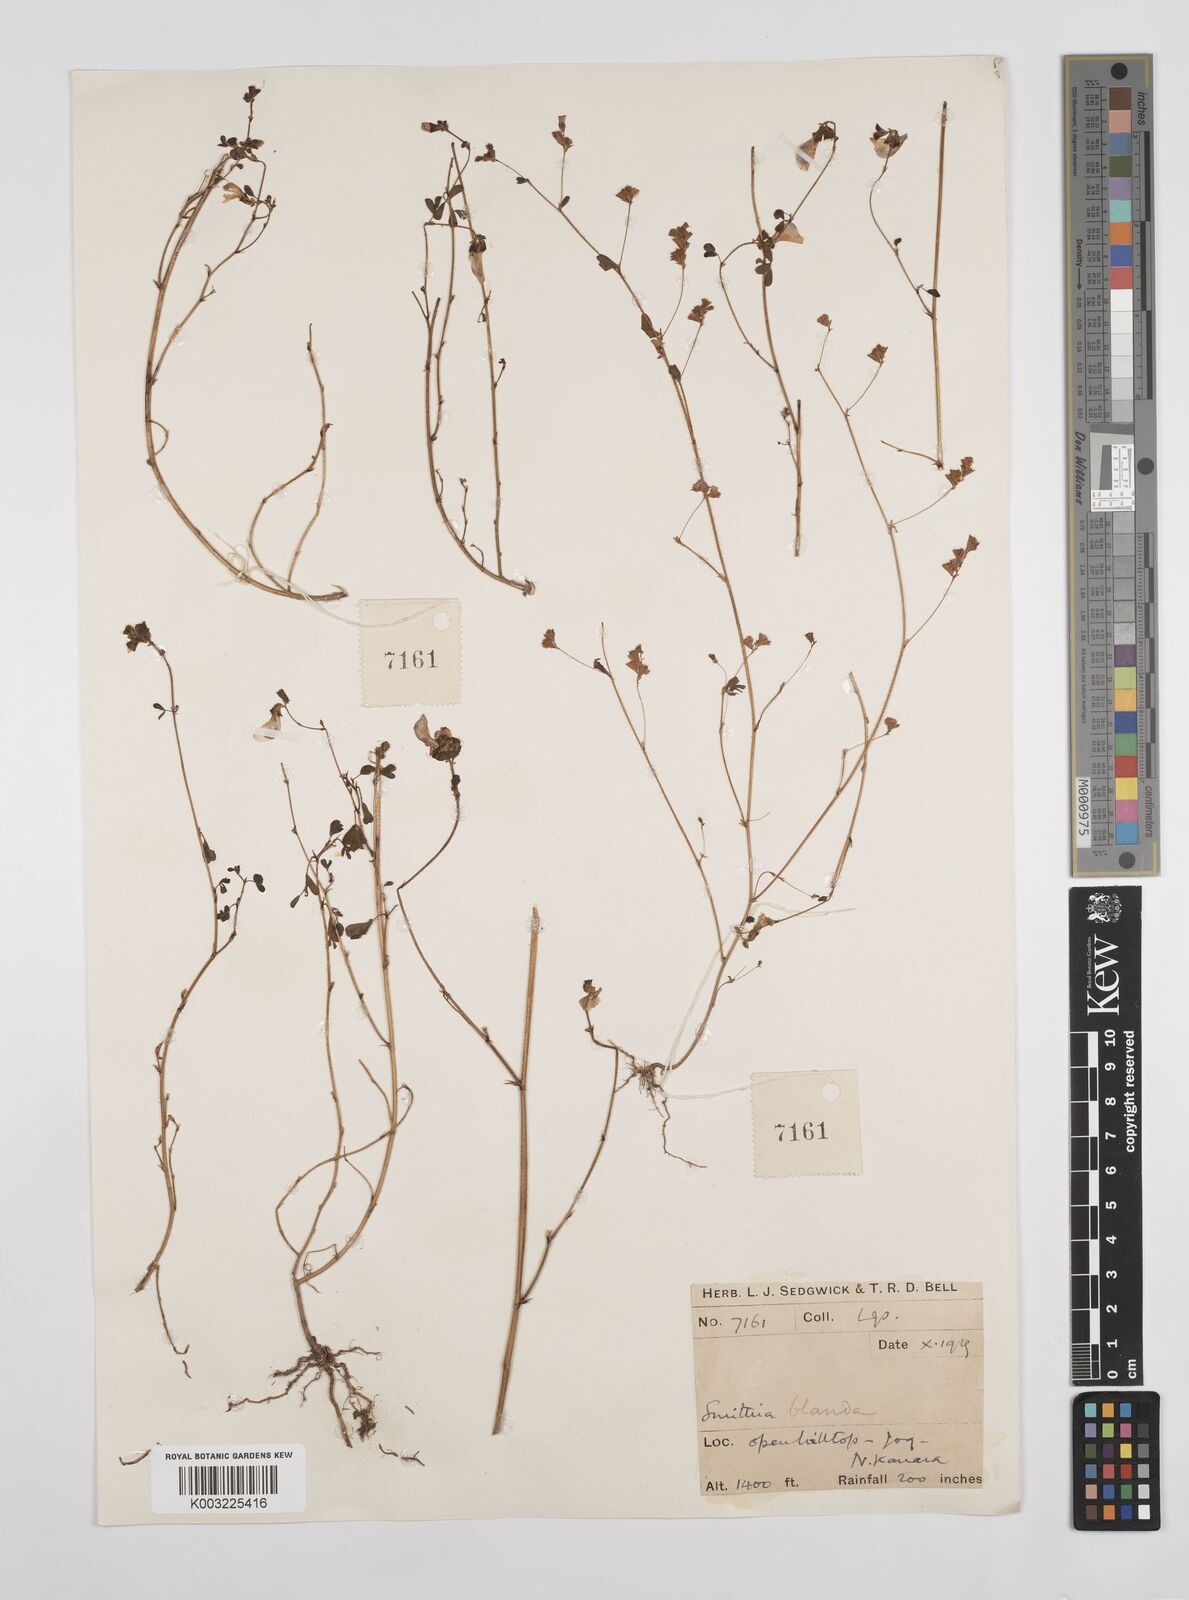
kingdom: Plantae
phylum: Tracheophyta
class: Magnoliopsida
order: Fabales
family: Fabaceae
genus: Smithia
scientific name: Smithia blanda
